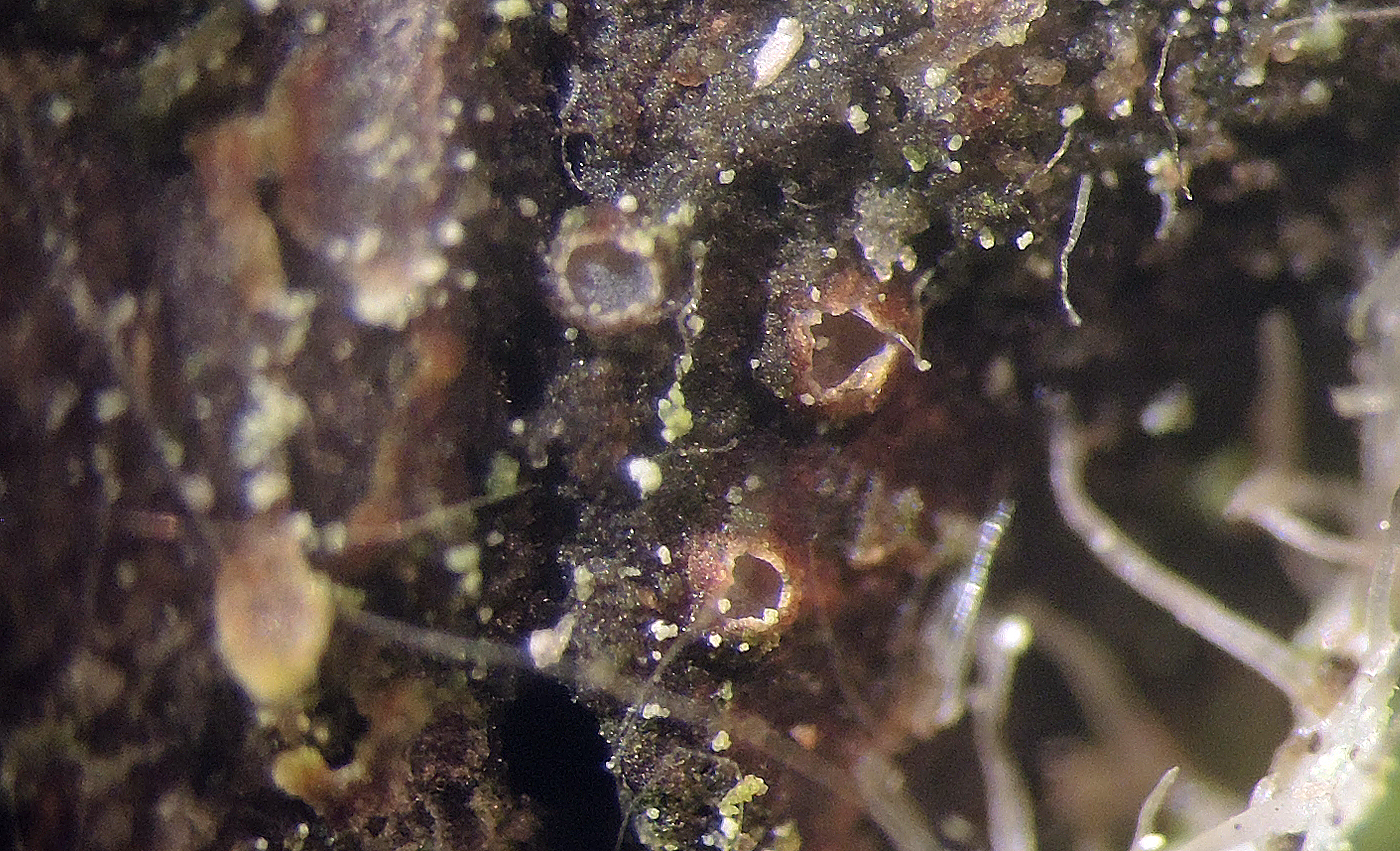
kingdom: Fungi
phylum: Ascomycota
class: Lecanoromycetes
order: Ostropales
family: Stictidaceae
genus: Karstenia
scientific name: Karstenia rhopaloides
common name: grårosa barkhul
